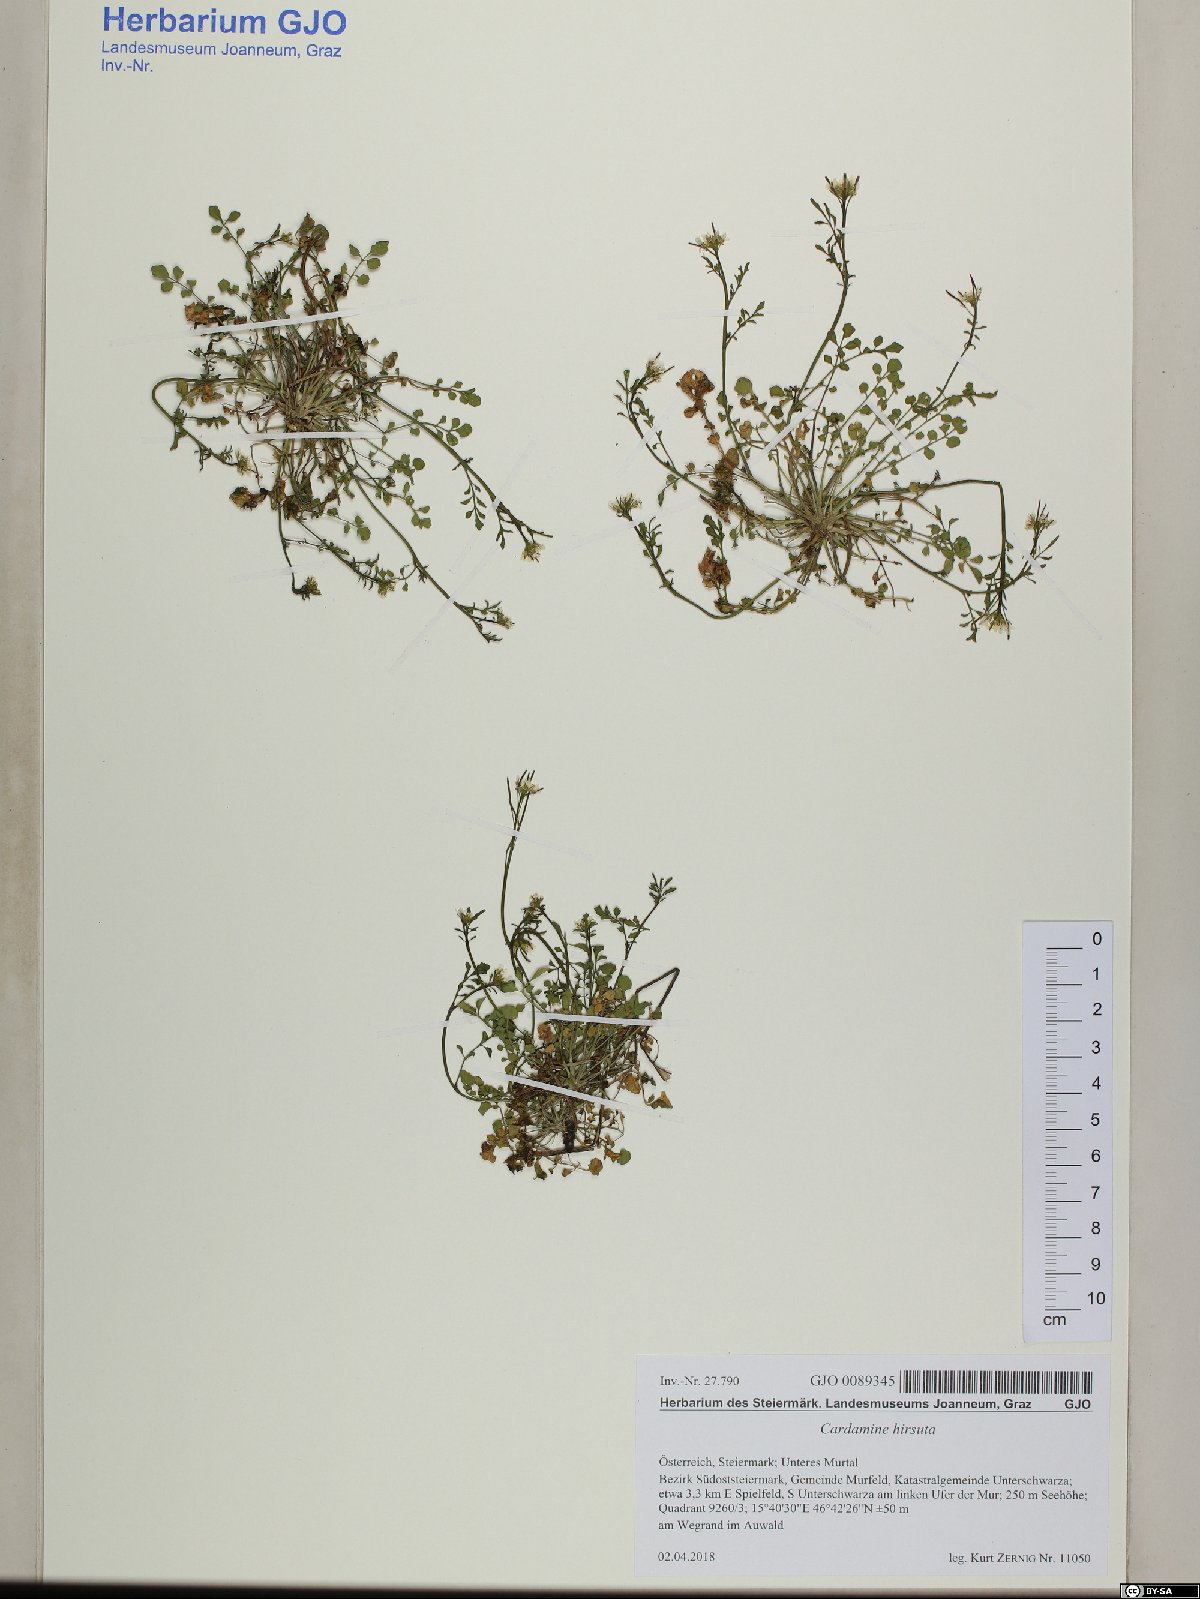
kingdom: Plantae
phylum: Tracheophyta
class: Magnoliopsida
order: Brassicales
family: Brassicaceae
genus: Cardamine
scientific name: Cardamine hirsuta
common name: Hairy bittercress
